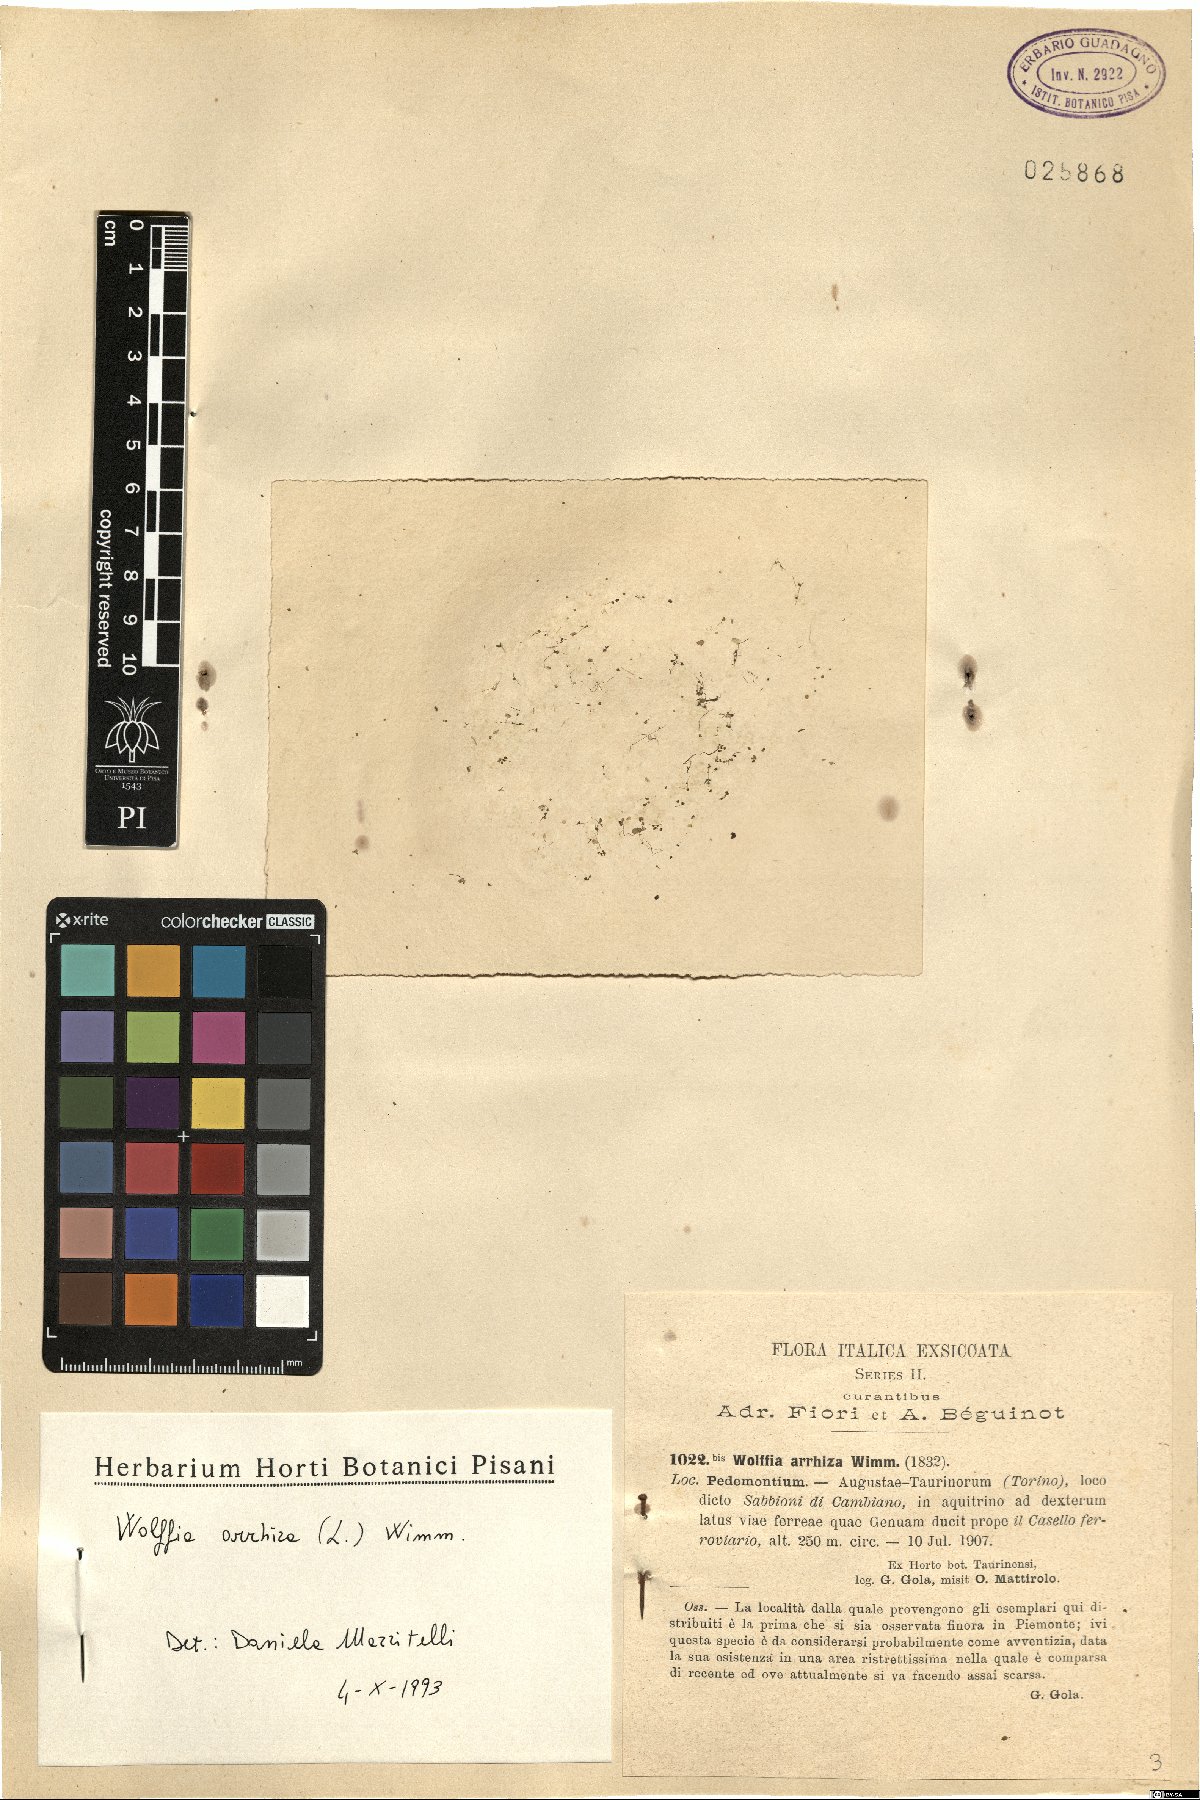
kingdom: Plantae
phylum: Tracheophyta
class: Liliopsida
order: Alismatales
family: Araceae
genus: Wolffia
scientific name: Wolffia arrhiza
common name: Rootless duckweed
